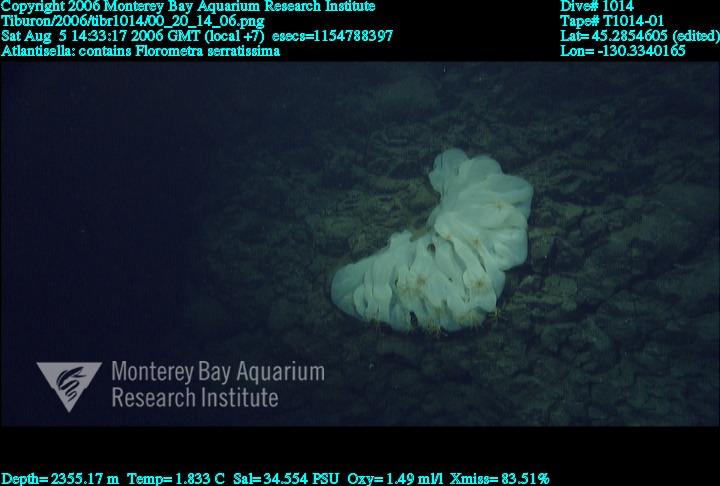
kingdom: Animalia
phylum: Porifera
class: Hexactinellida
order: Lyssacinosida
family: Euplectellidae
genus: Atlantisella
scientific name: Atlantisella
